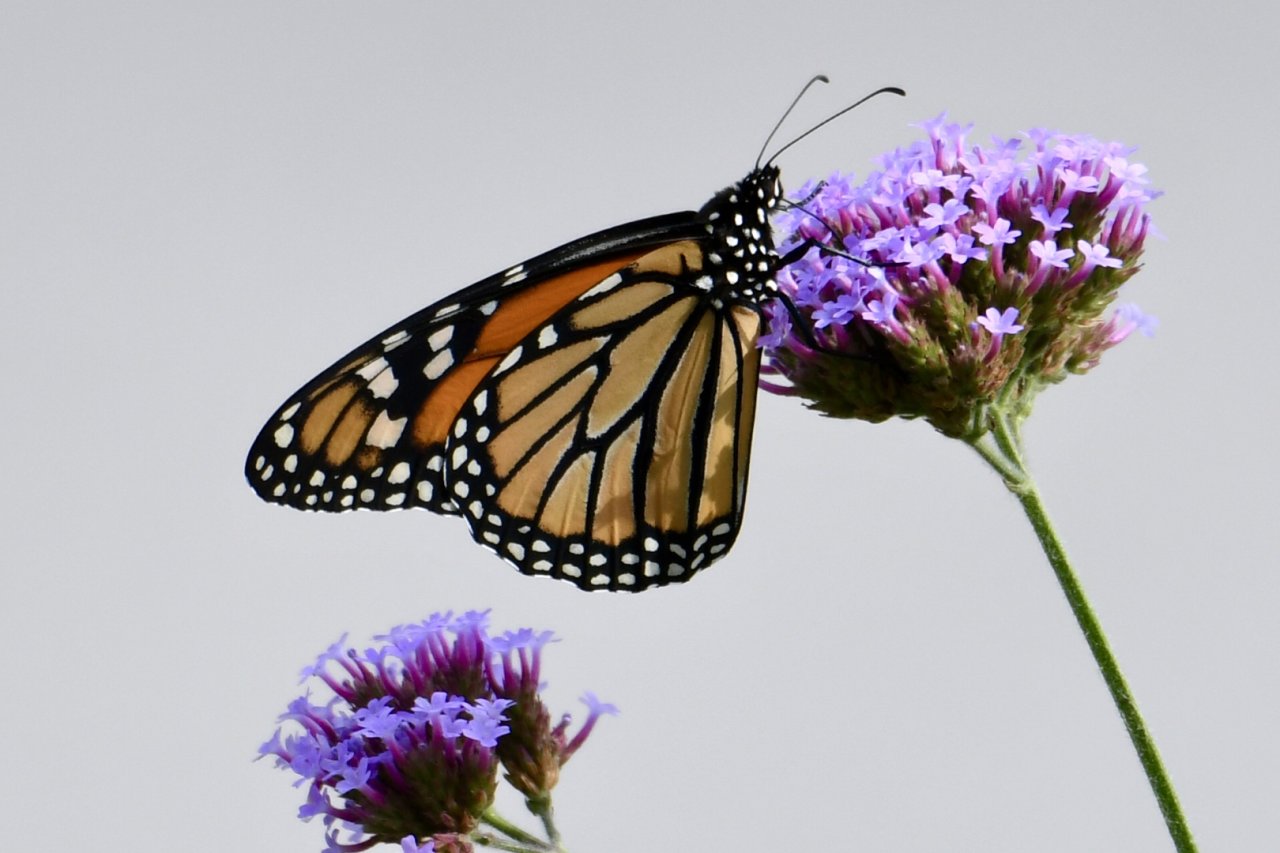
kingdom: Animalia
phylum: Arthropoda
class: Insecta
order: Lepidoptera
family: Nymphalidae
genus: Danaus
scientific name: Danaus plexippus
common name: Monarch
